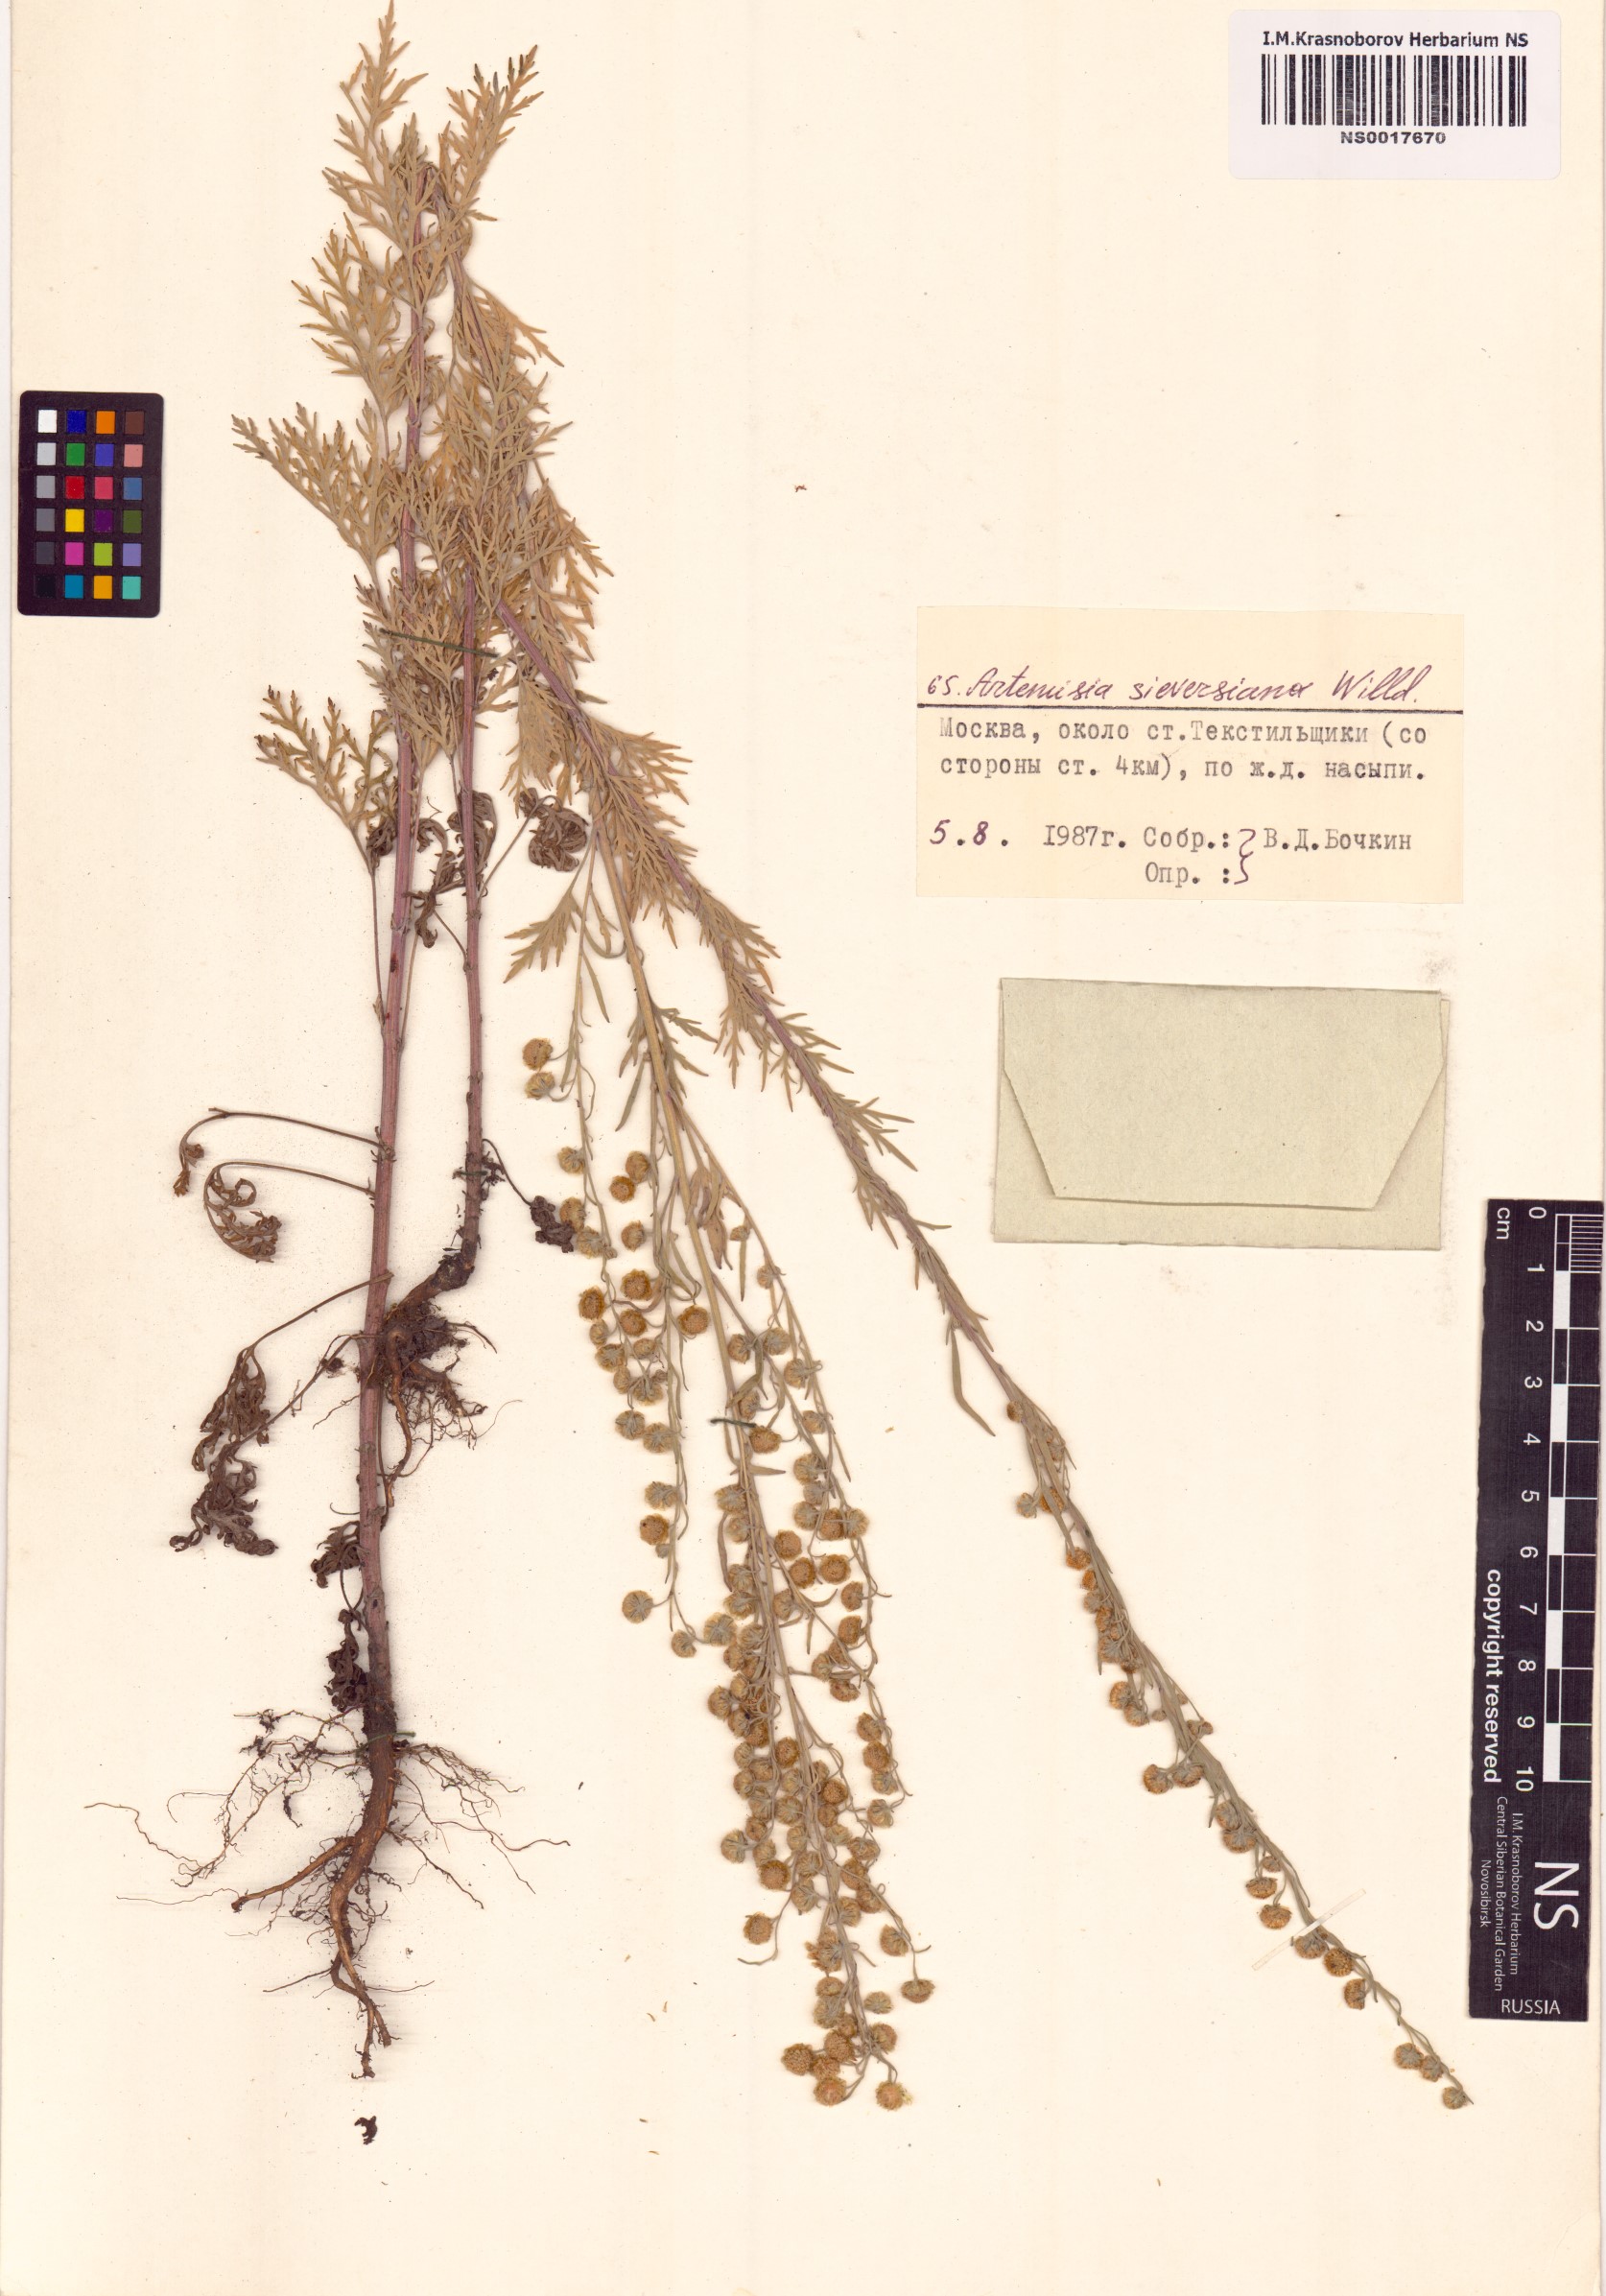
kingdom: Plantae
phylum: Tracheophyta
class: Magnoliopsida
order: Asterales
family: Asteraceae
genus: Artemisia
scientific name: Artemisia sieversiana
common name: Sieversian wormwood
